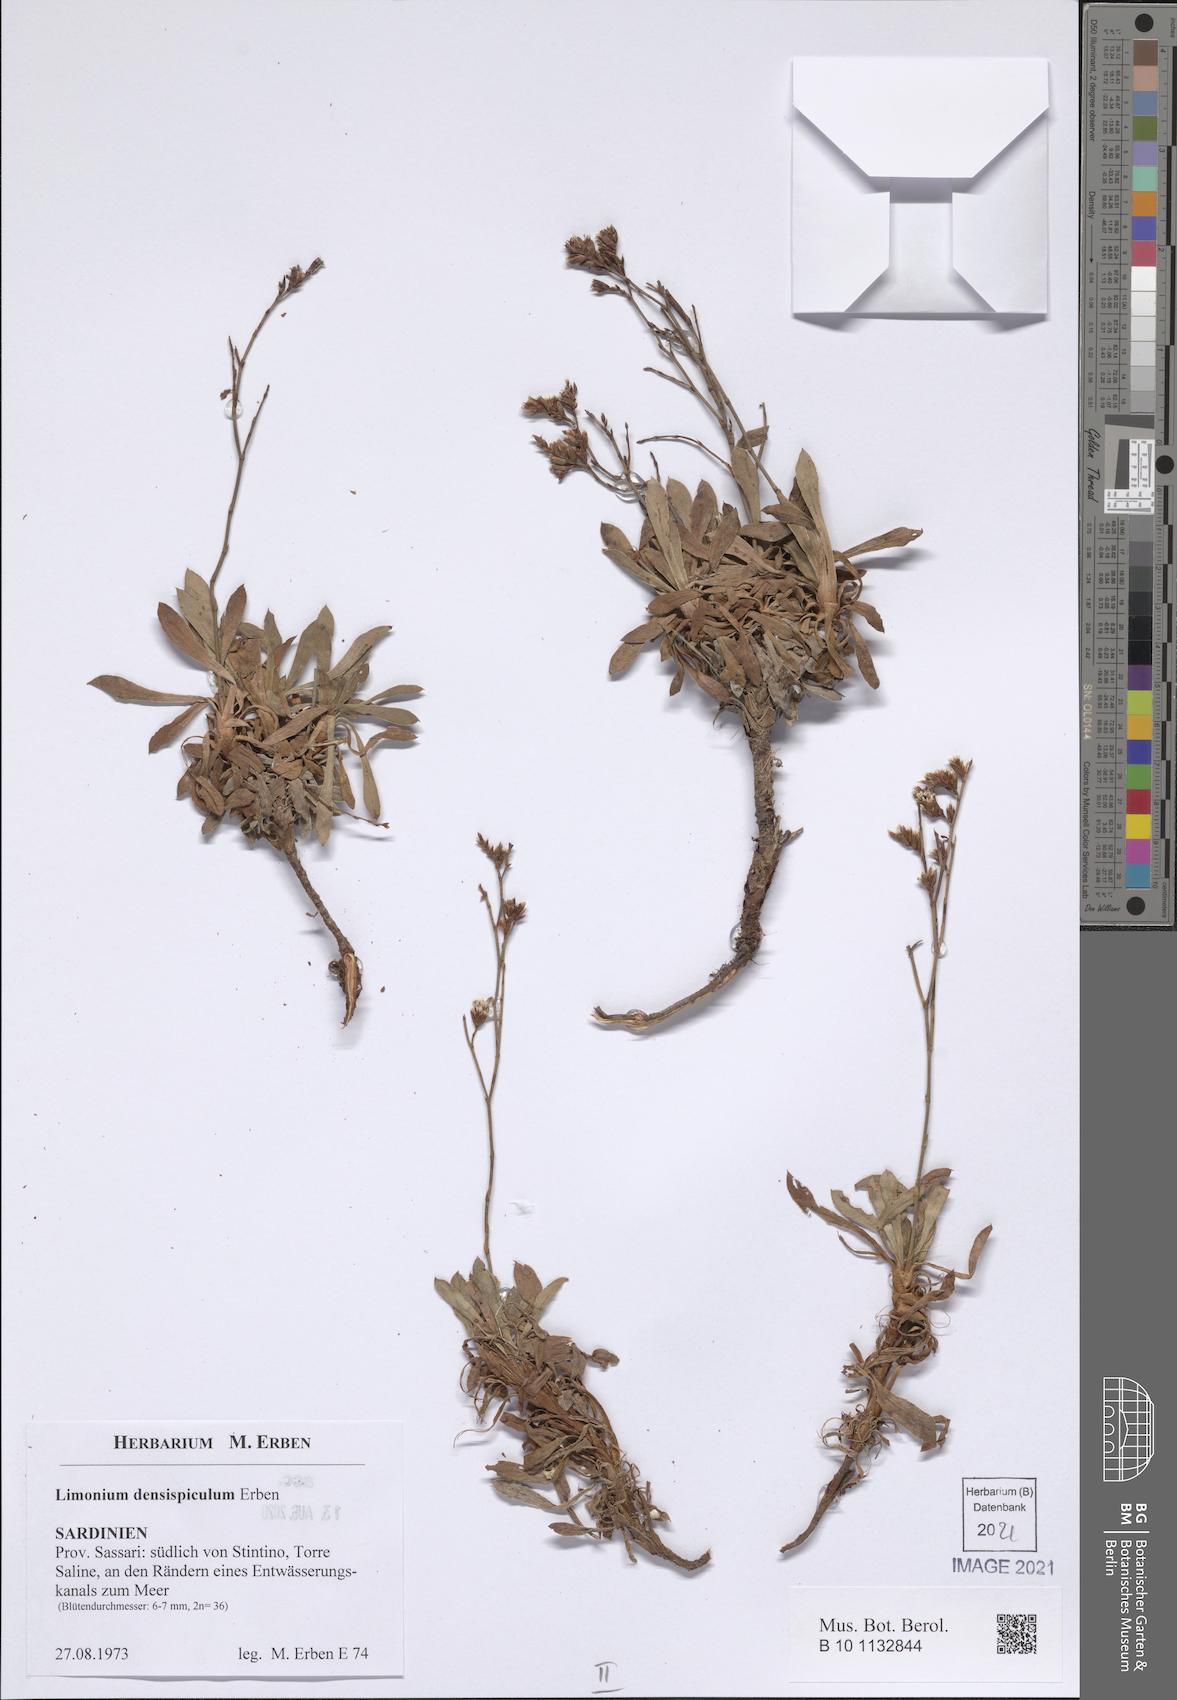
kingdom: Plantae
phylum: Tracheophyta
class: Magnoliopsida
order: Caryophyllales
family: Plumbaginaceae
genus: Limonium
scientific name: Limonium
